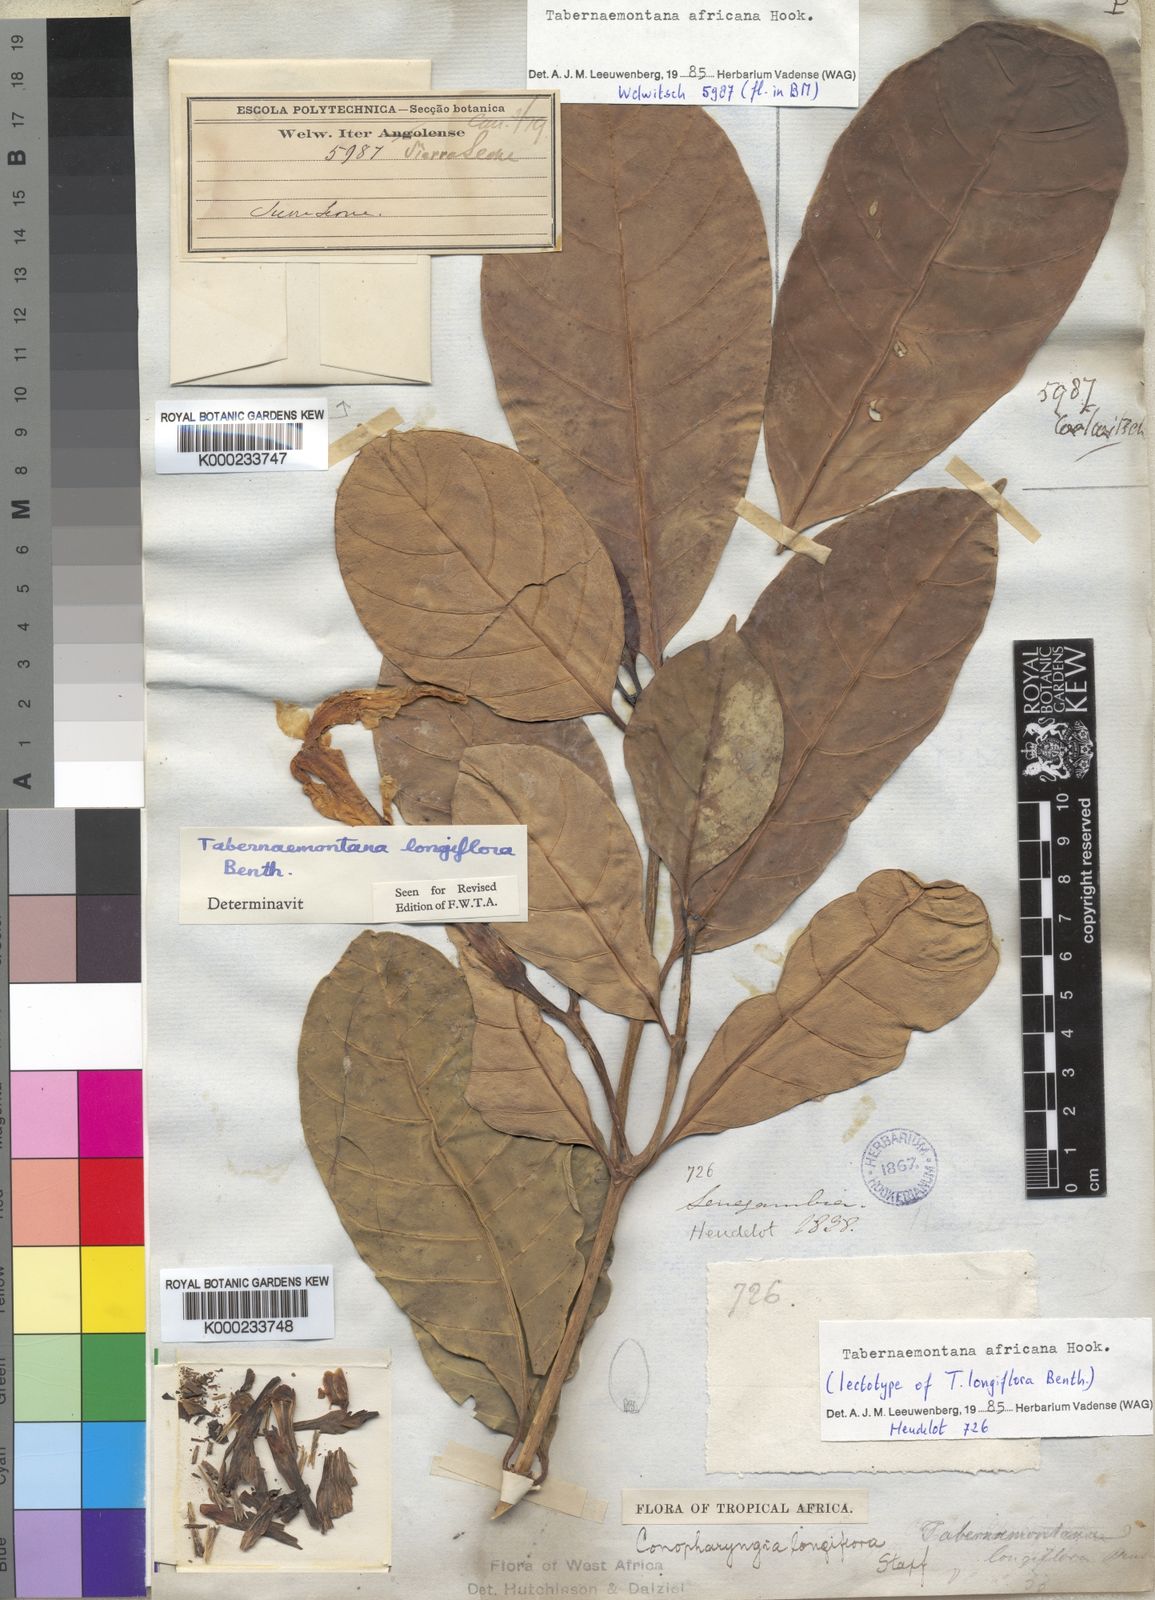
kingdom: Plantae
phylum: Tracheophyta
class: Magnoliopsida
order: Gentianales
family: Apocynaceae
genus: Tabernaemontana
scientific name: Tabernaemontana
